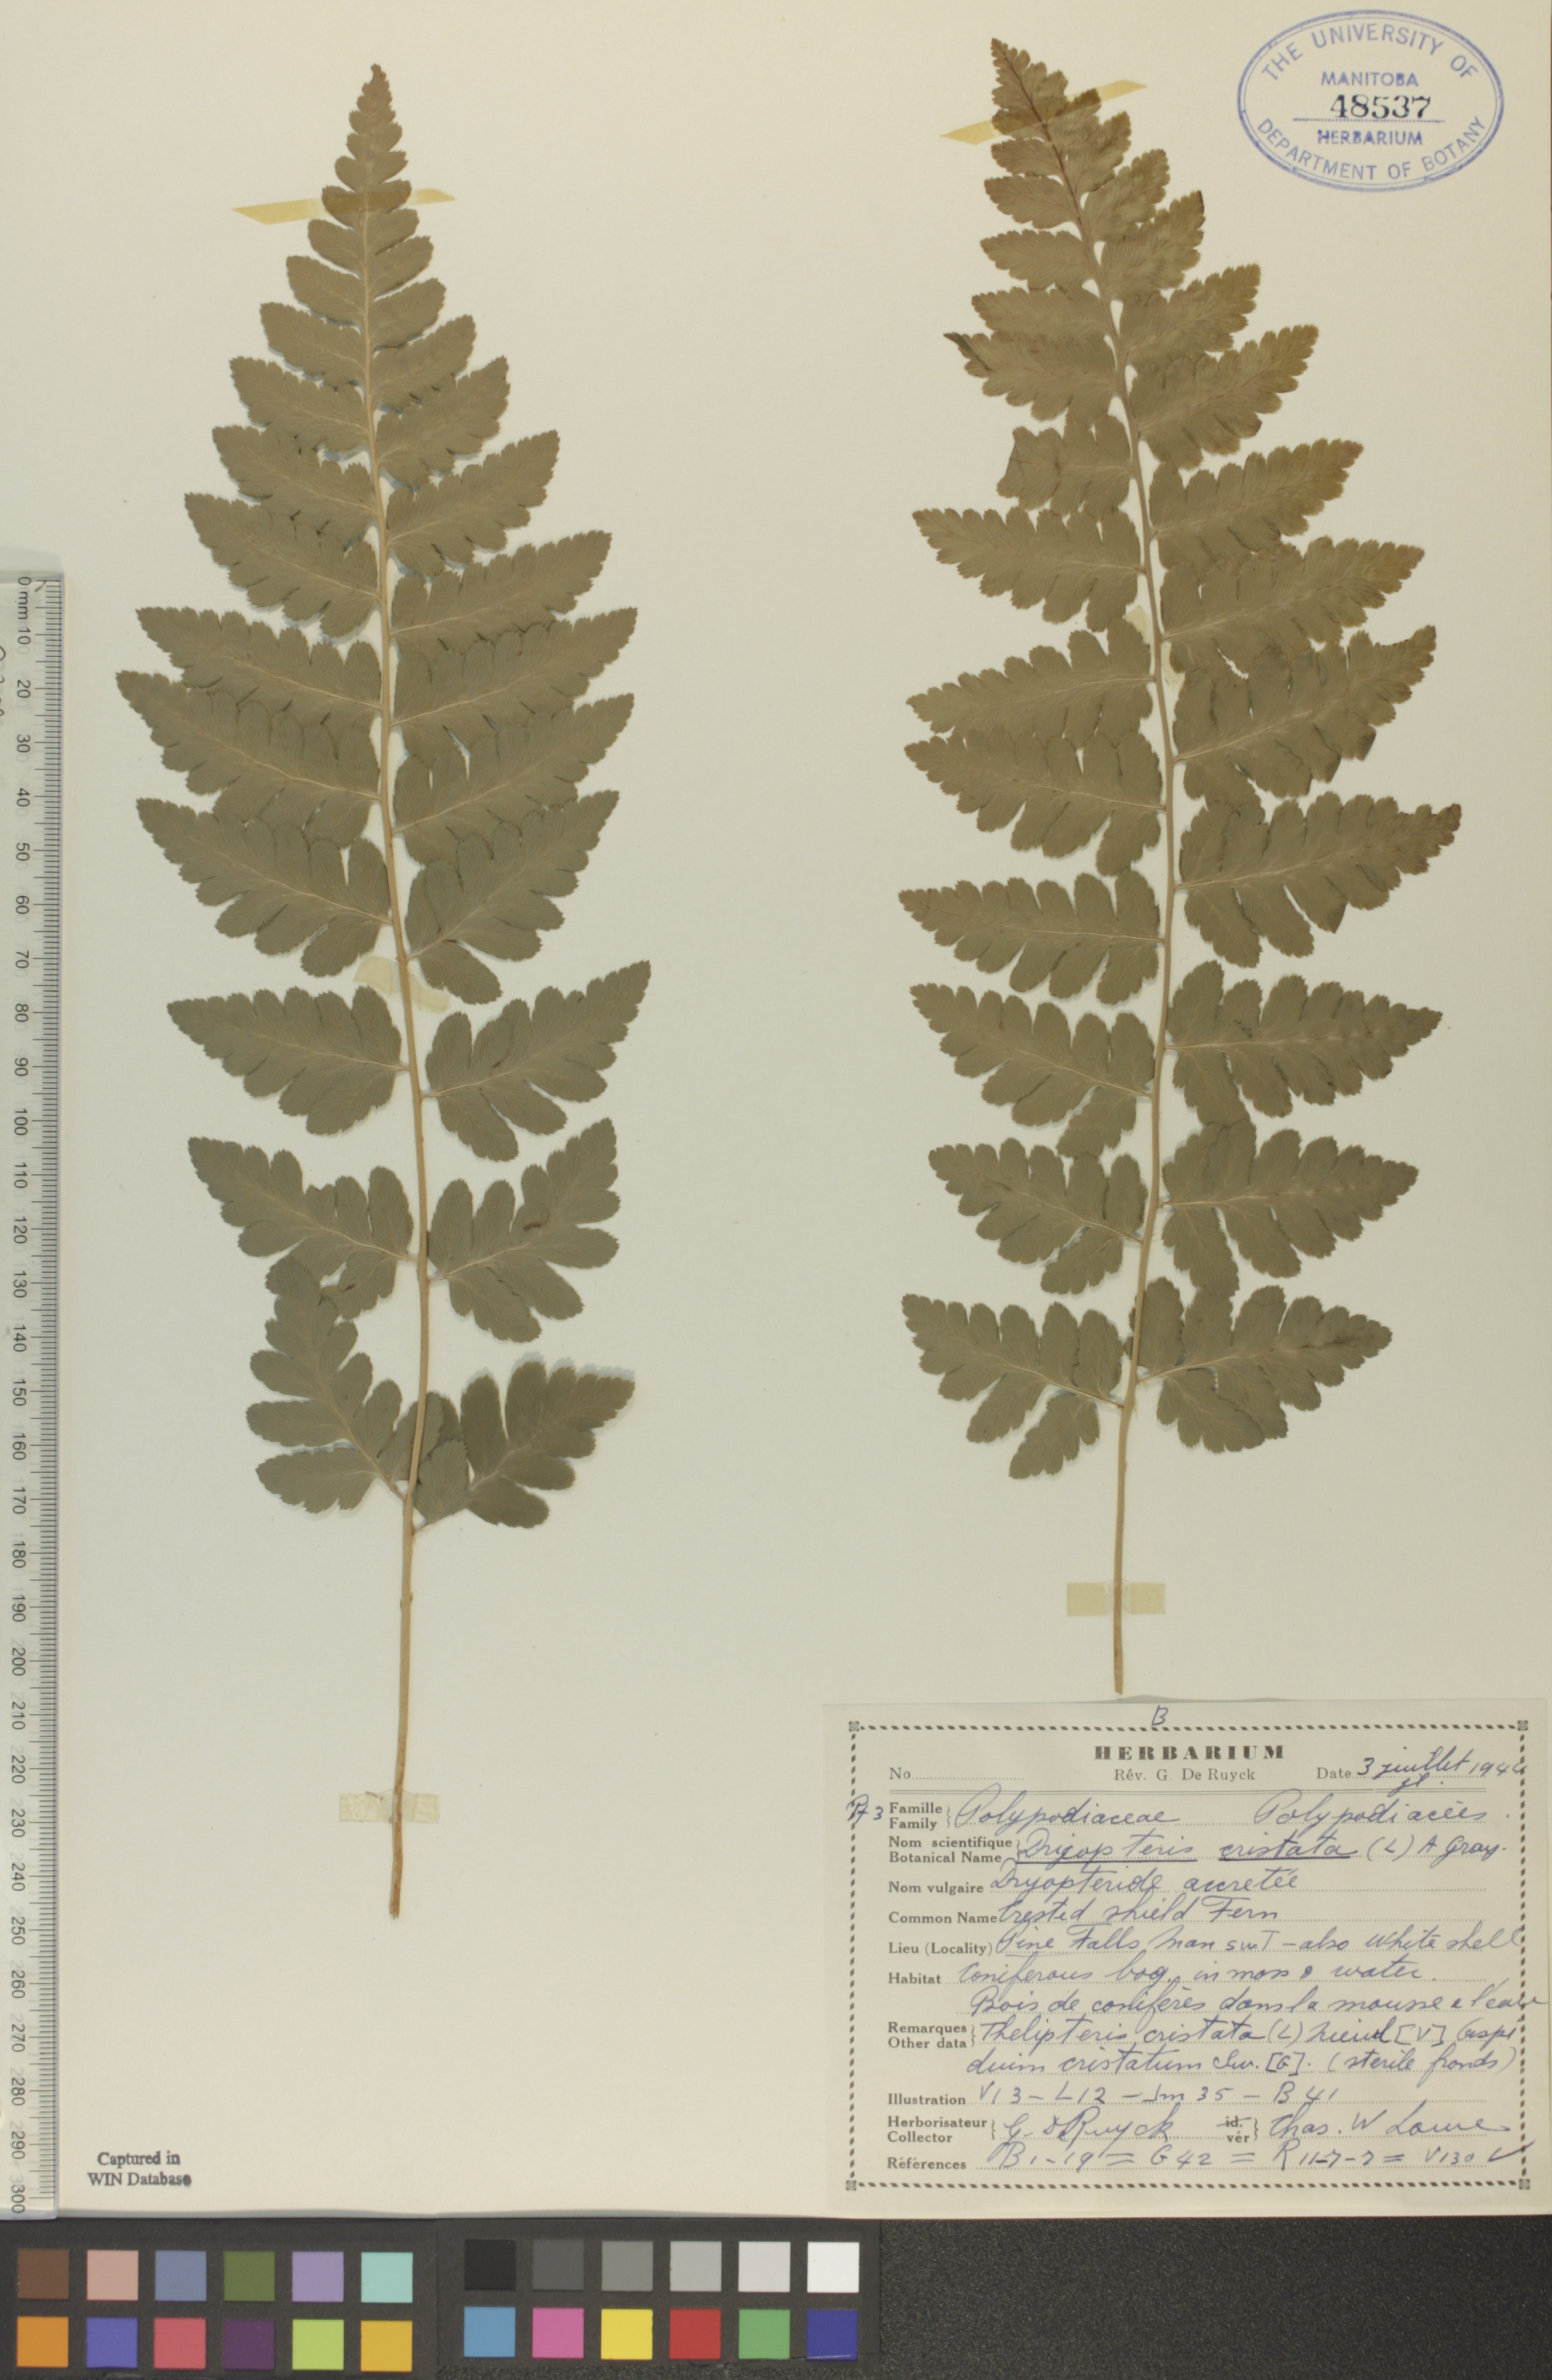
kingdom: Plantae
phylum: Tracheophyta
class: Polypodiopsida
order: Polypodiales
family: Dryopteridaceae
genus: Dryopteris
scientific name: Dryopteris cristata
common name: Crested wood fern
